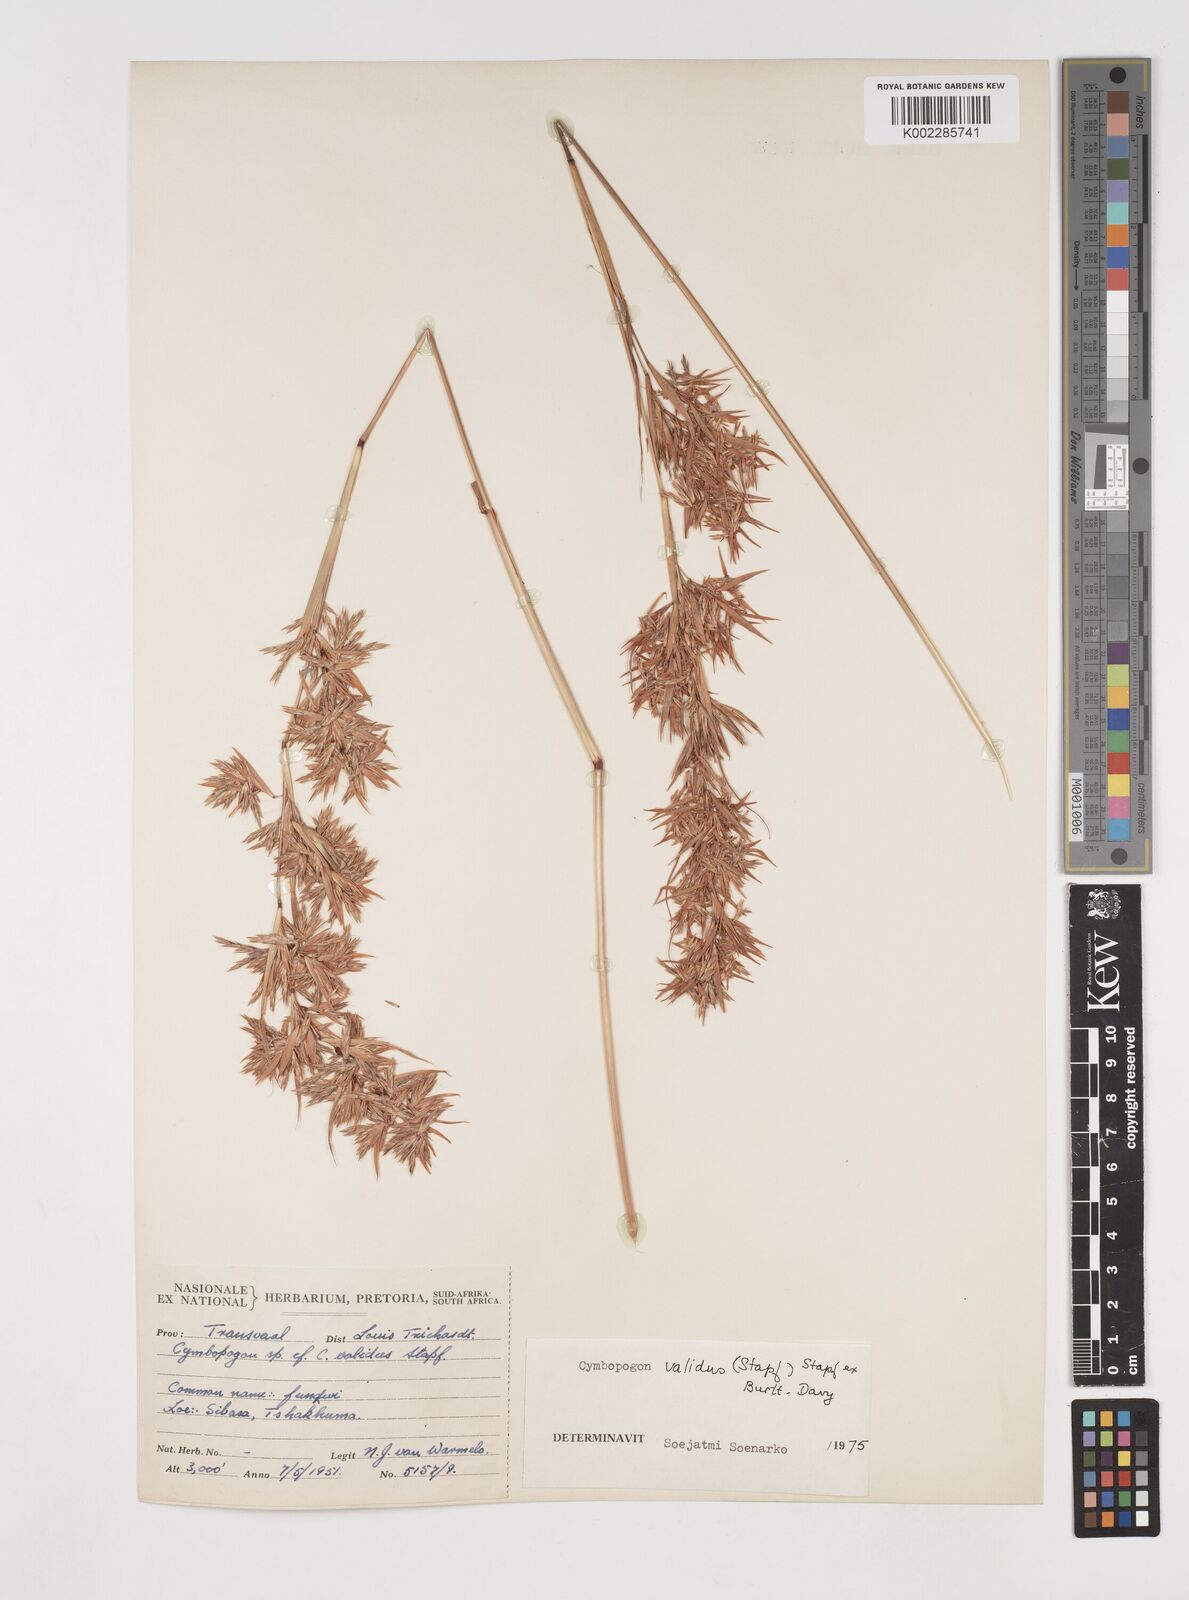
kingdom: Plantae
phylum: Tracheophyta
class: Liliopsida
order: Poales
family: Poaceae
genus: Cymbopogon
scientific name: Cymbopogon nardus
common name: Giant turpentine grass
